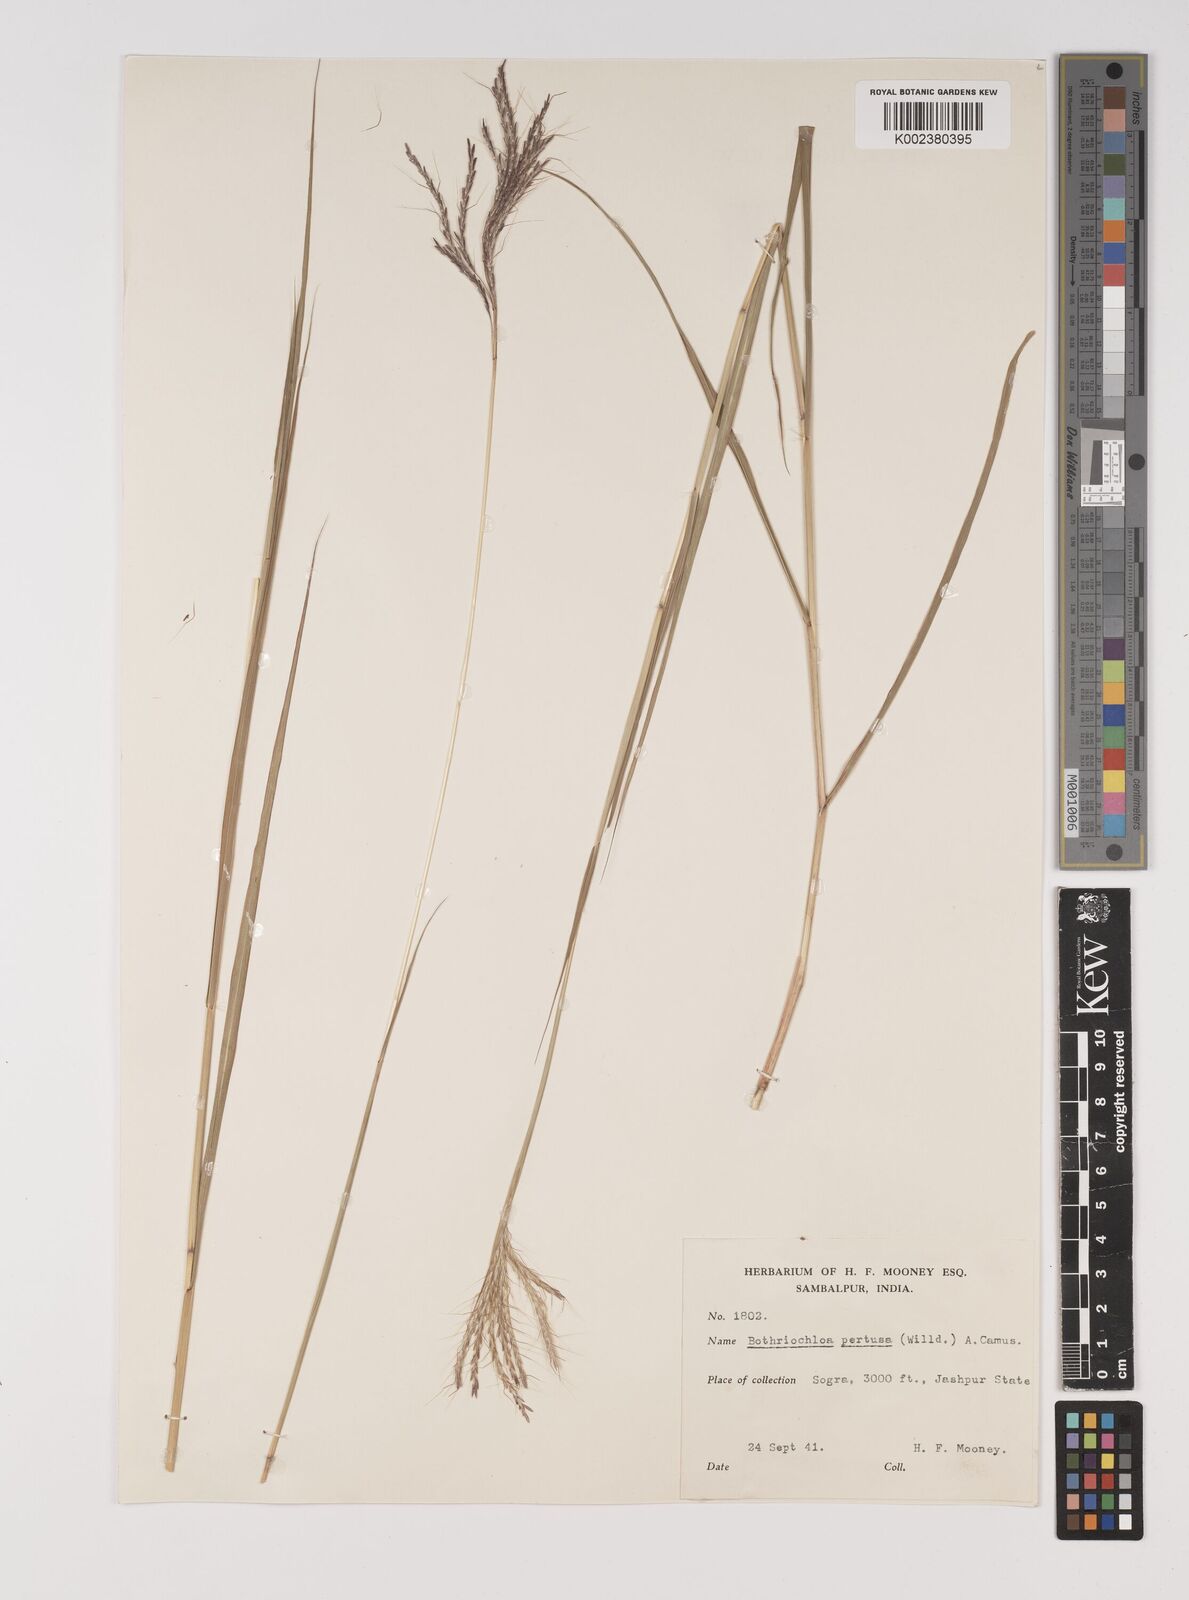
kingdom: Plantae
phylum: Tracheophyta
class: Liliopsida
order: Poales
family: Poaceae
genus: Bothriochloa
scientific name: Bothriochloa pertusa
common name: Pitted beardgrass
